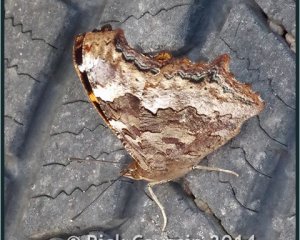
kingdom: Animalia
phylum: Arthropoda
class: Insecta
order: Lepidoptera
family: Nymphalidae
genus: Polygonia
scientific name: Polygonia vaualbum
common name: Compton Tortoiseshell
